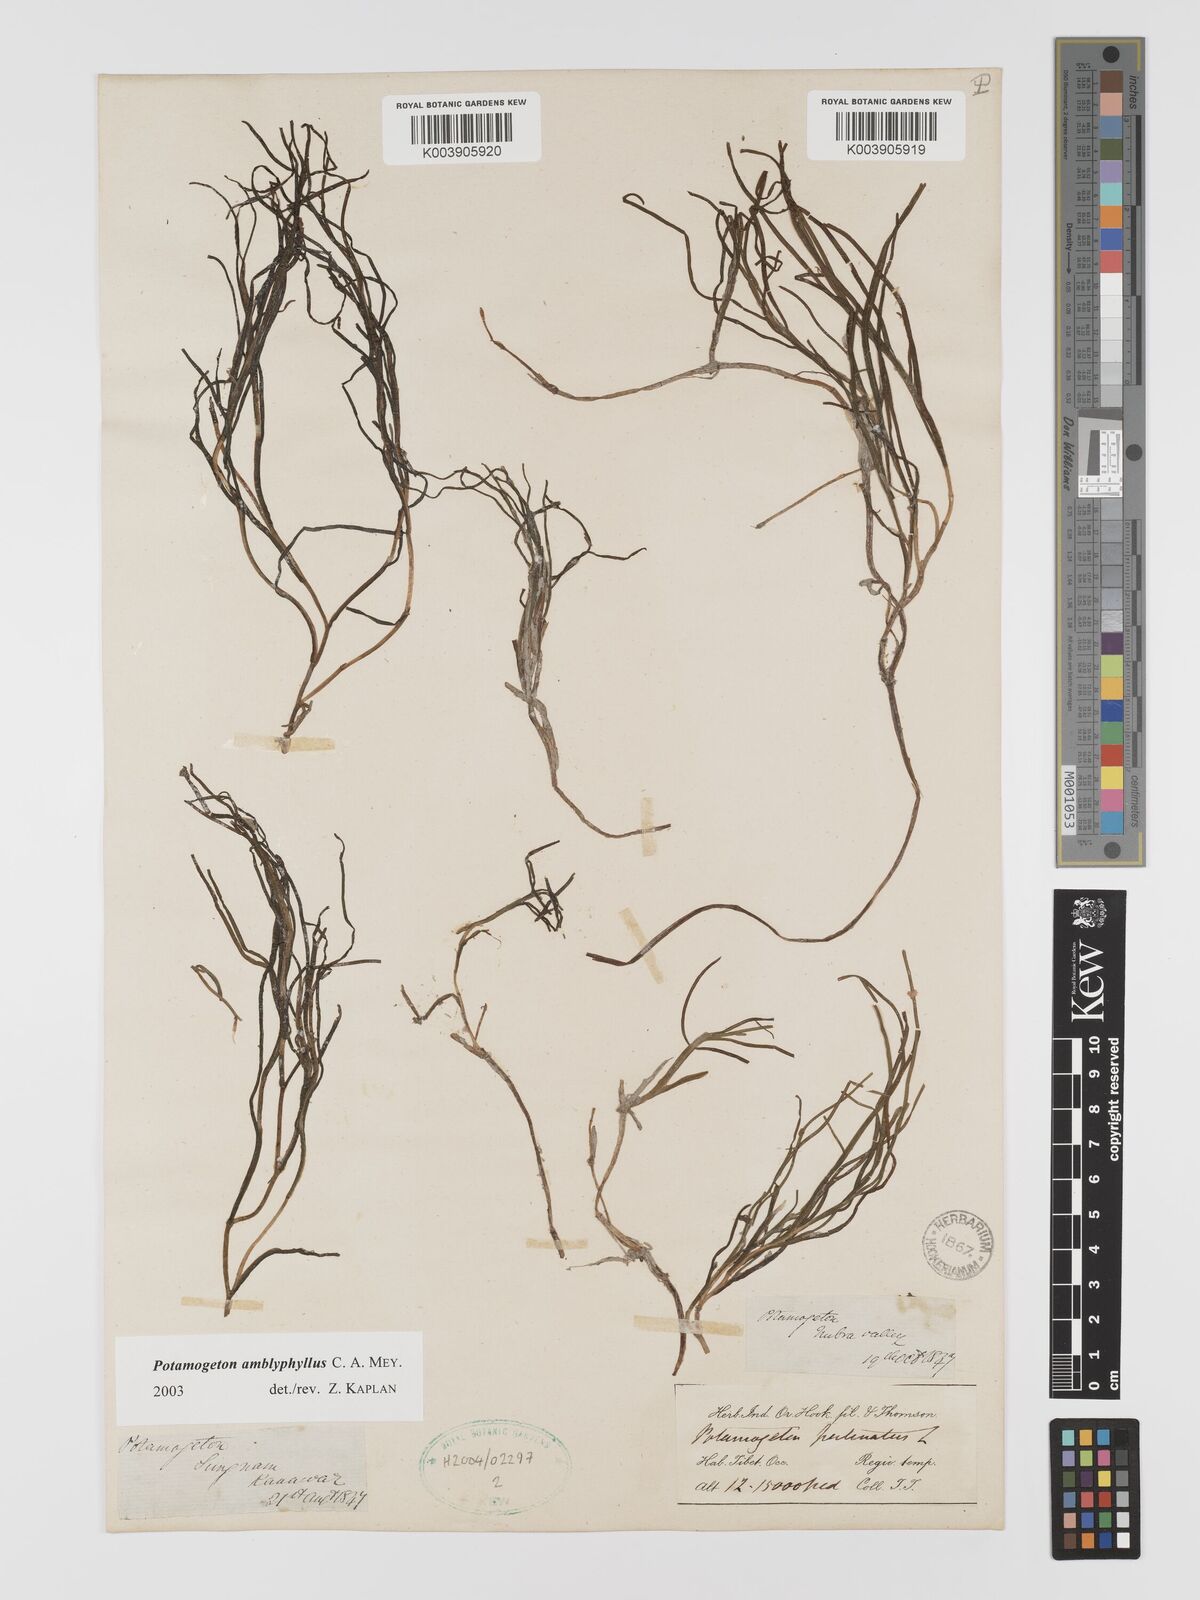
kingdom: Plantae
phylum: Tracheophyta
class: Liliopsida
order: Alismatales
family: Potamogetonaceae
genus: Stuckenia
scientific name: Stuckenia amblyophylla
